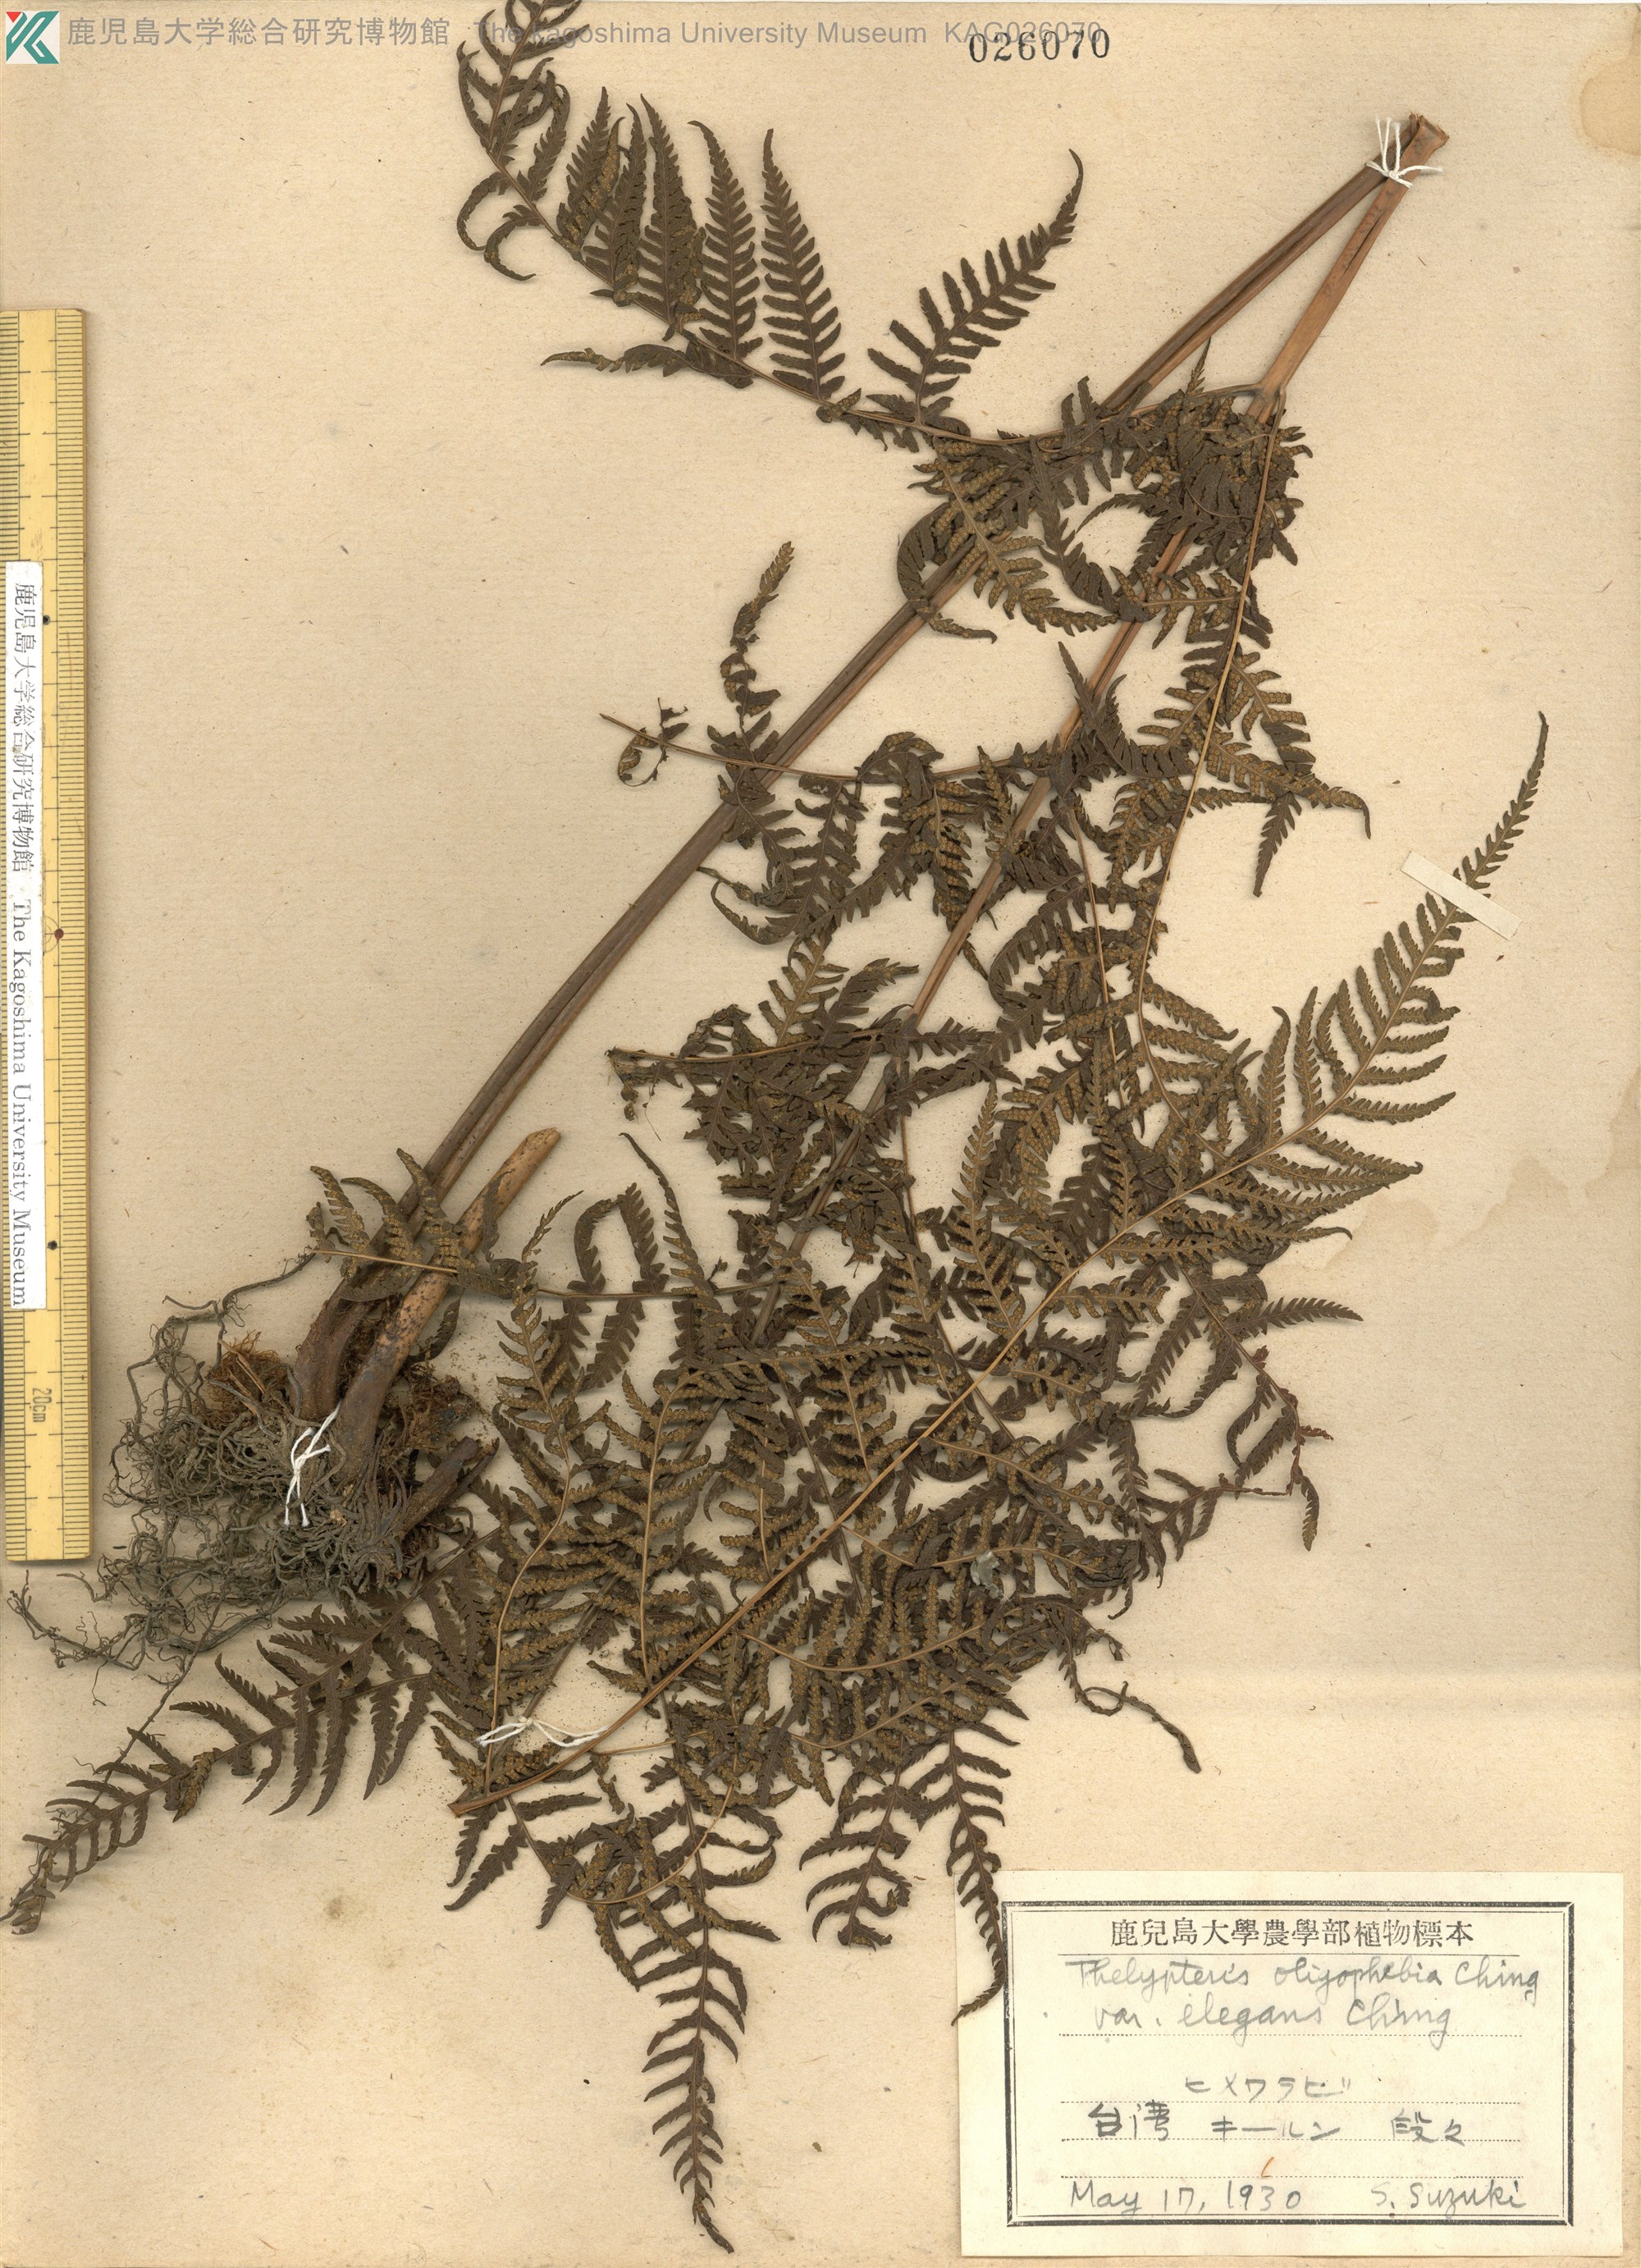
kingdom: Plantae
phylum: Tracheophyta
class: Polypodiopsida
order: Polypodiales
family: Thelypteridaceae
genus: Macrothelypteris
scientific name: Macrothelypteris oligophlebia
